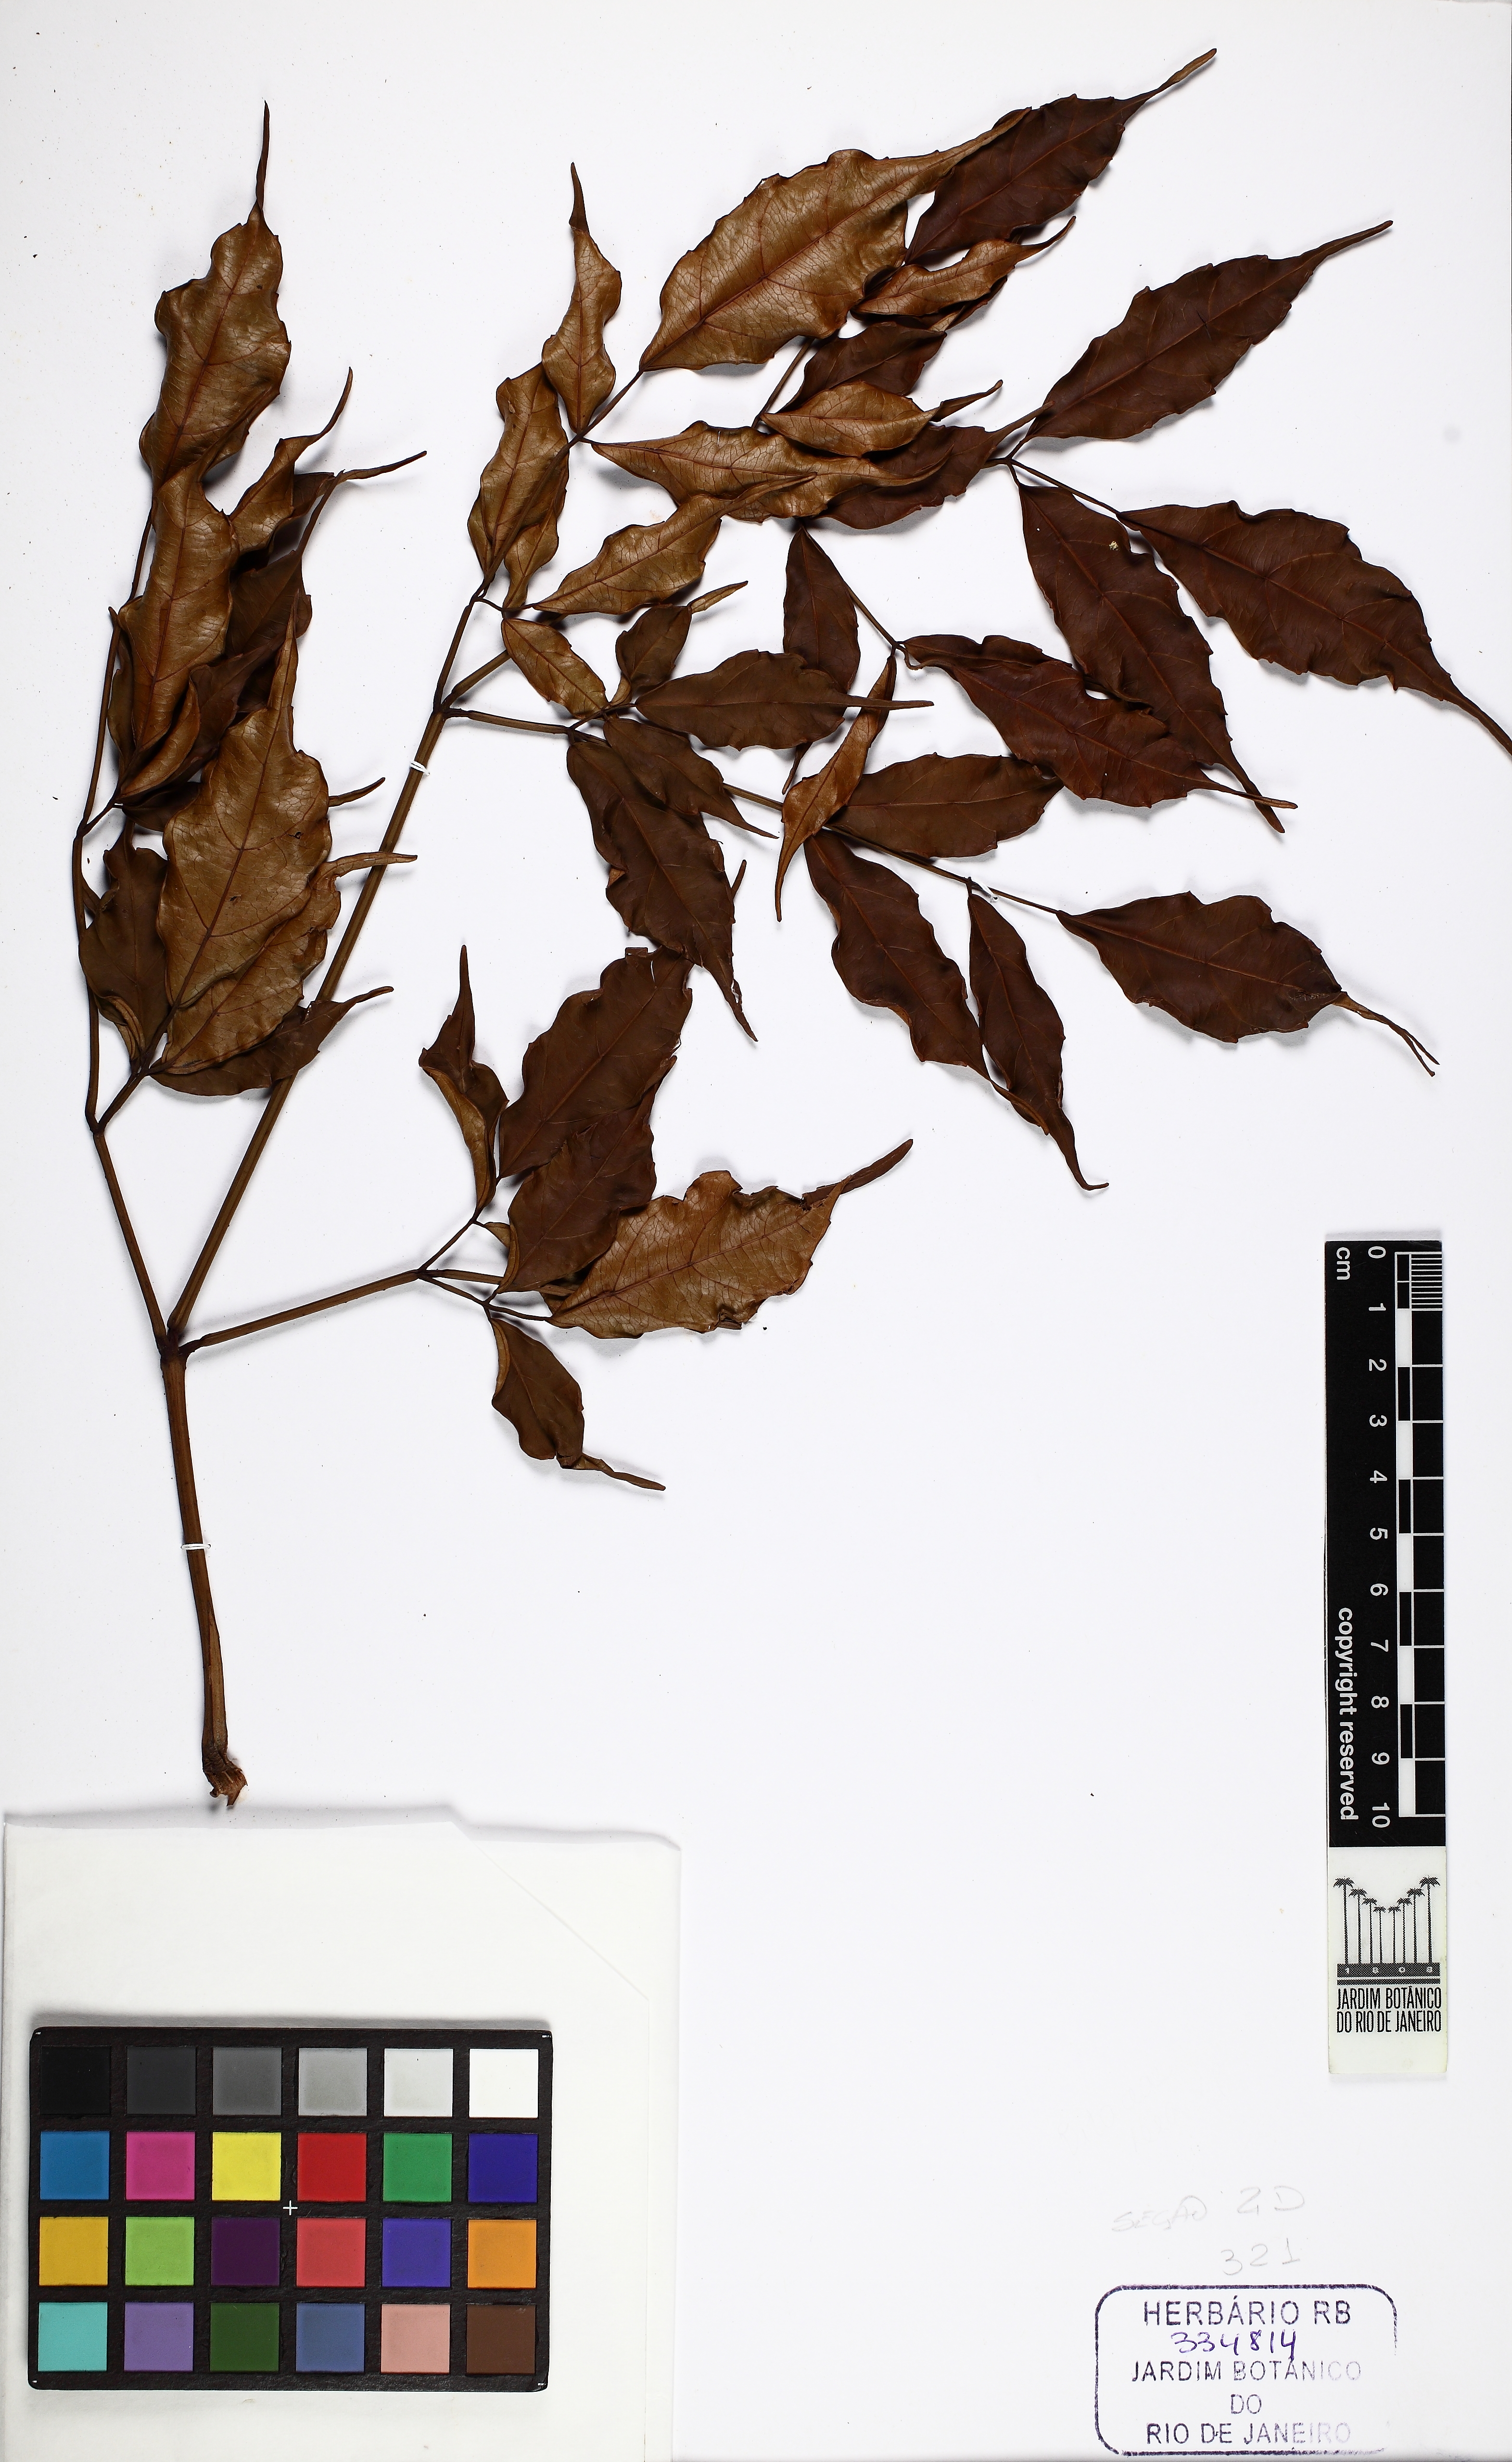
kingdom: Plantae
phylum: Tracheophyta
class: Magnoliopsida
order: Vitales
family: Vitaceae
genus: Leea
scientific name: Leea rubra
